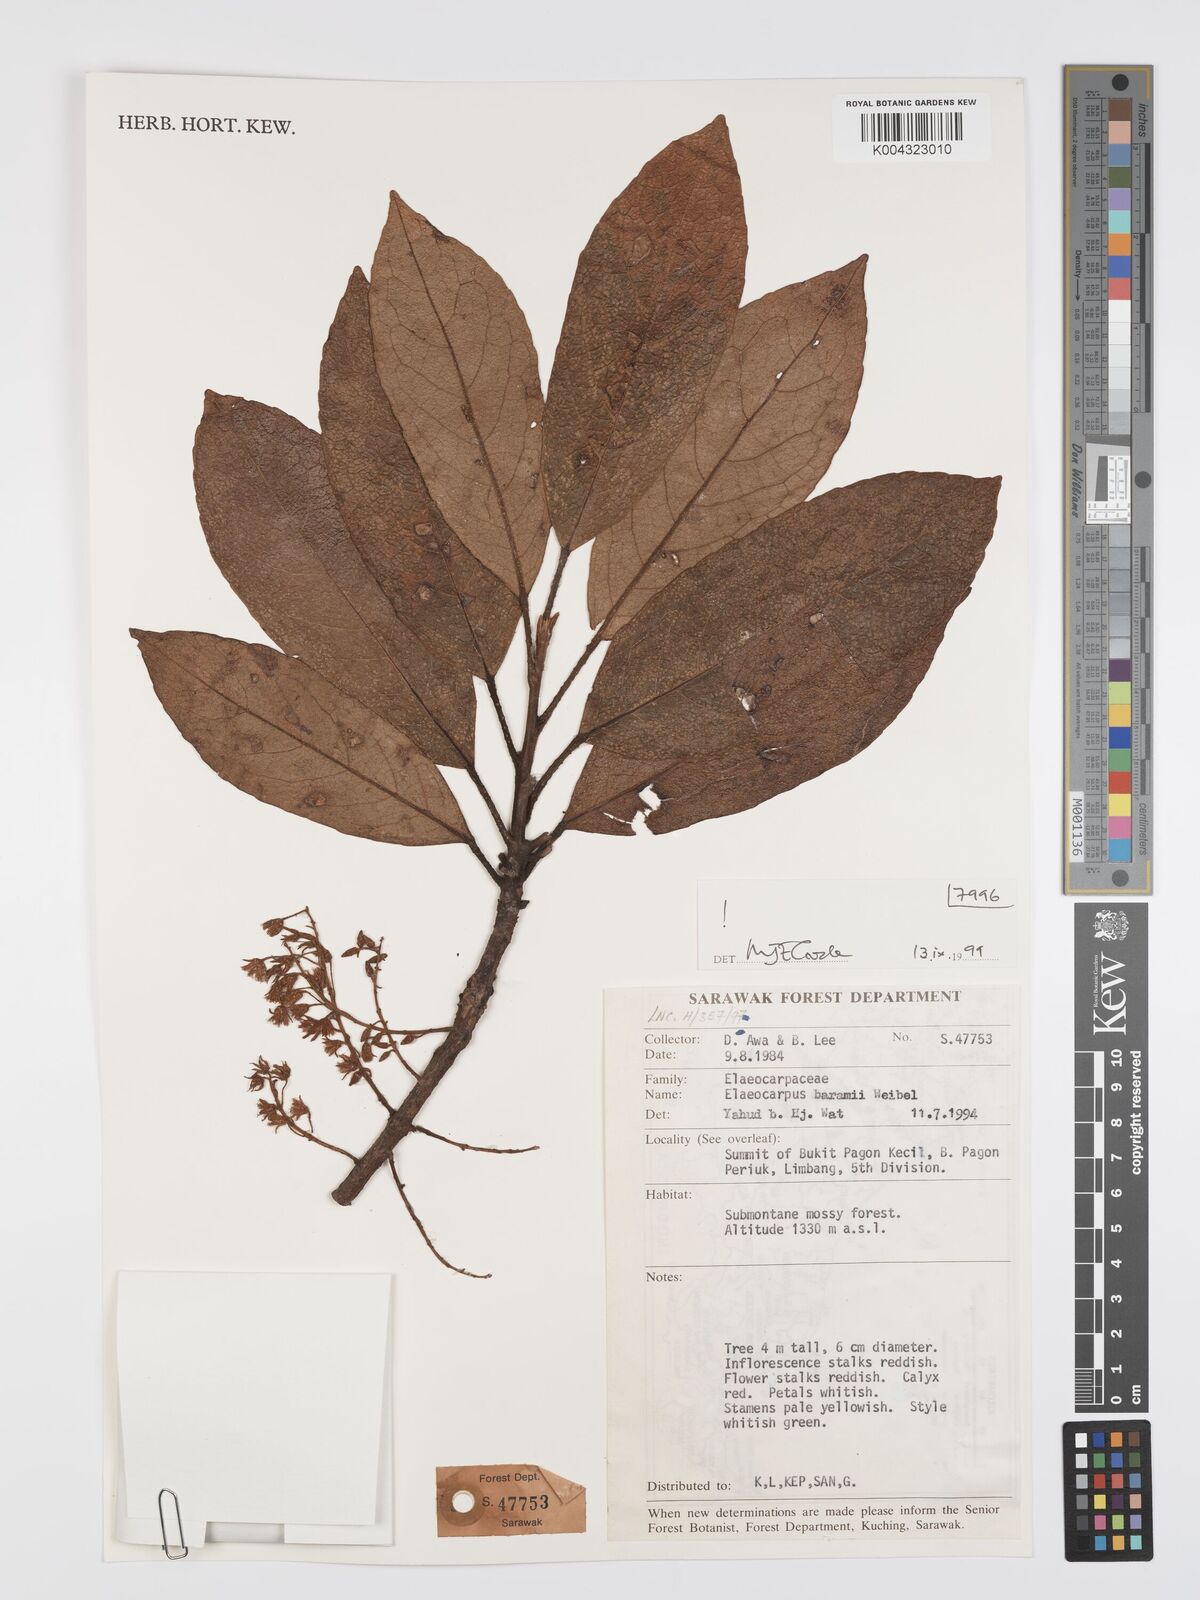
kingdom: Plantae
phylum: Tracheophyta
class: Magnoliopsida
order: Oxalidales
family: Elaeocarpaceae
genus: Elaeocarpus
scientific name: Elaeocarpus baramii
